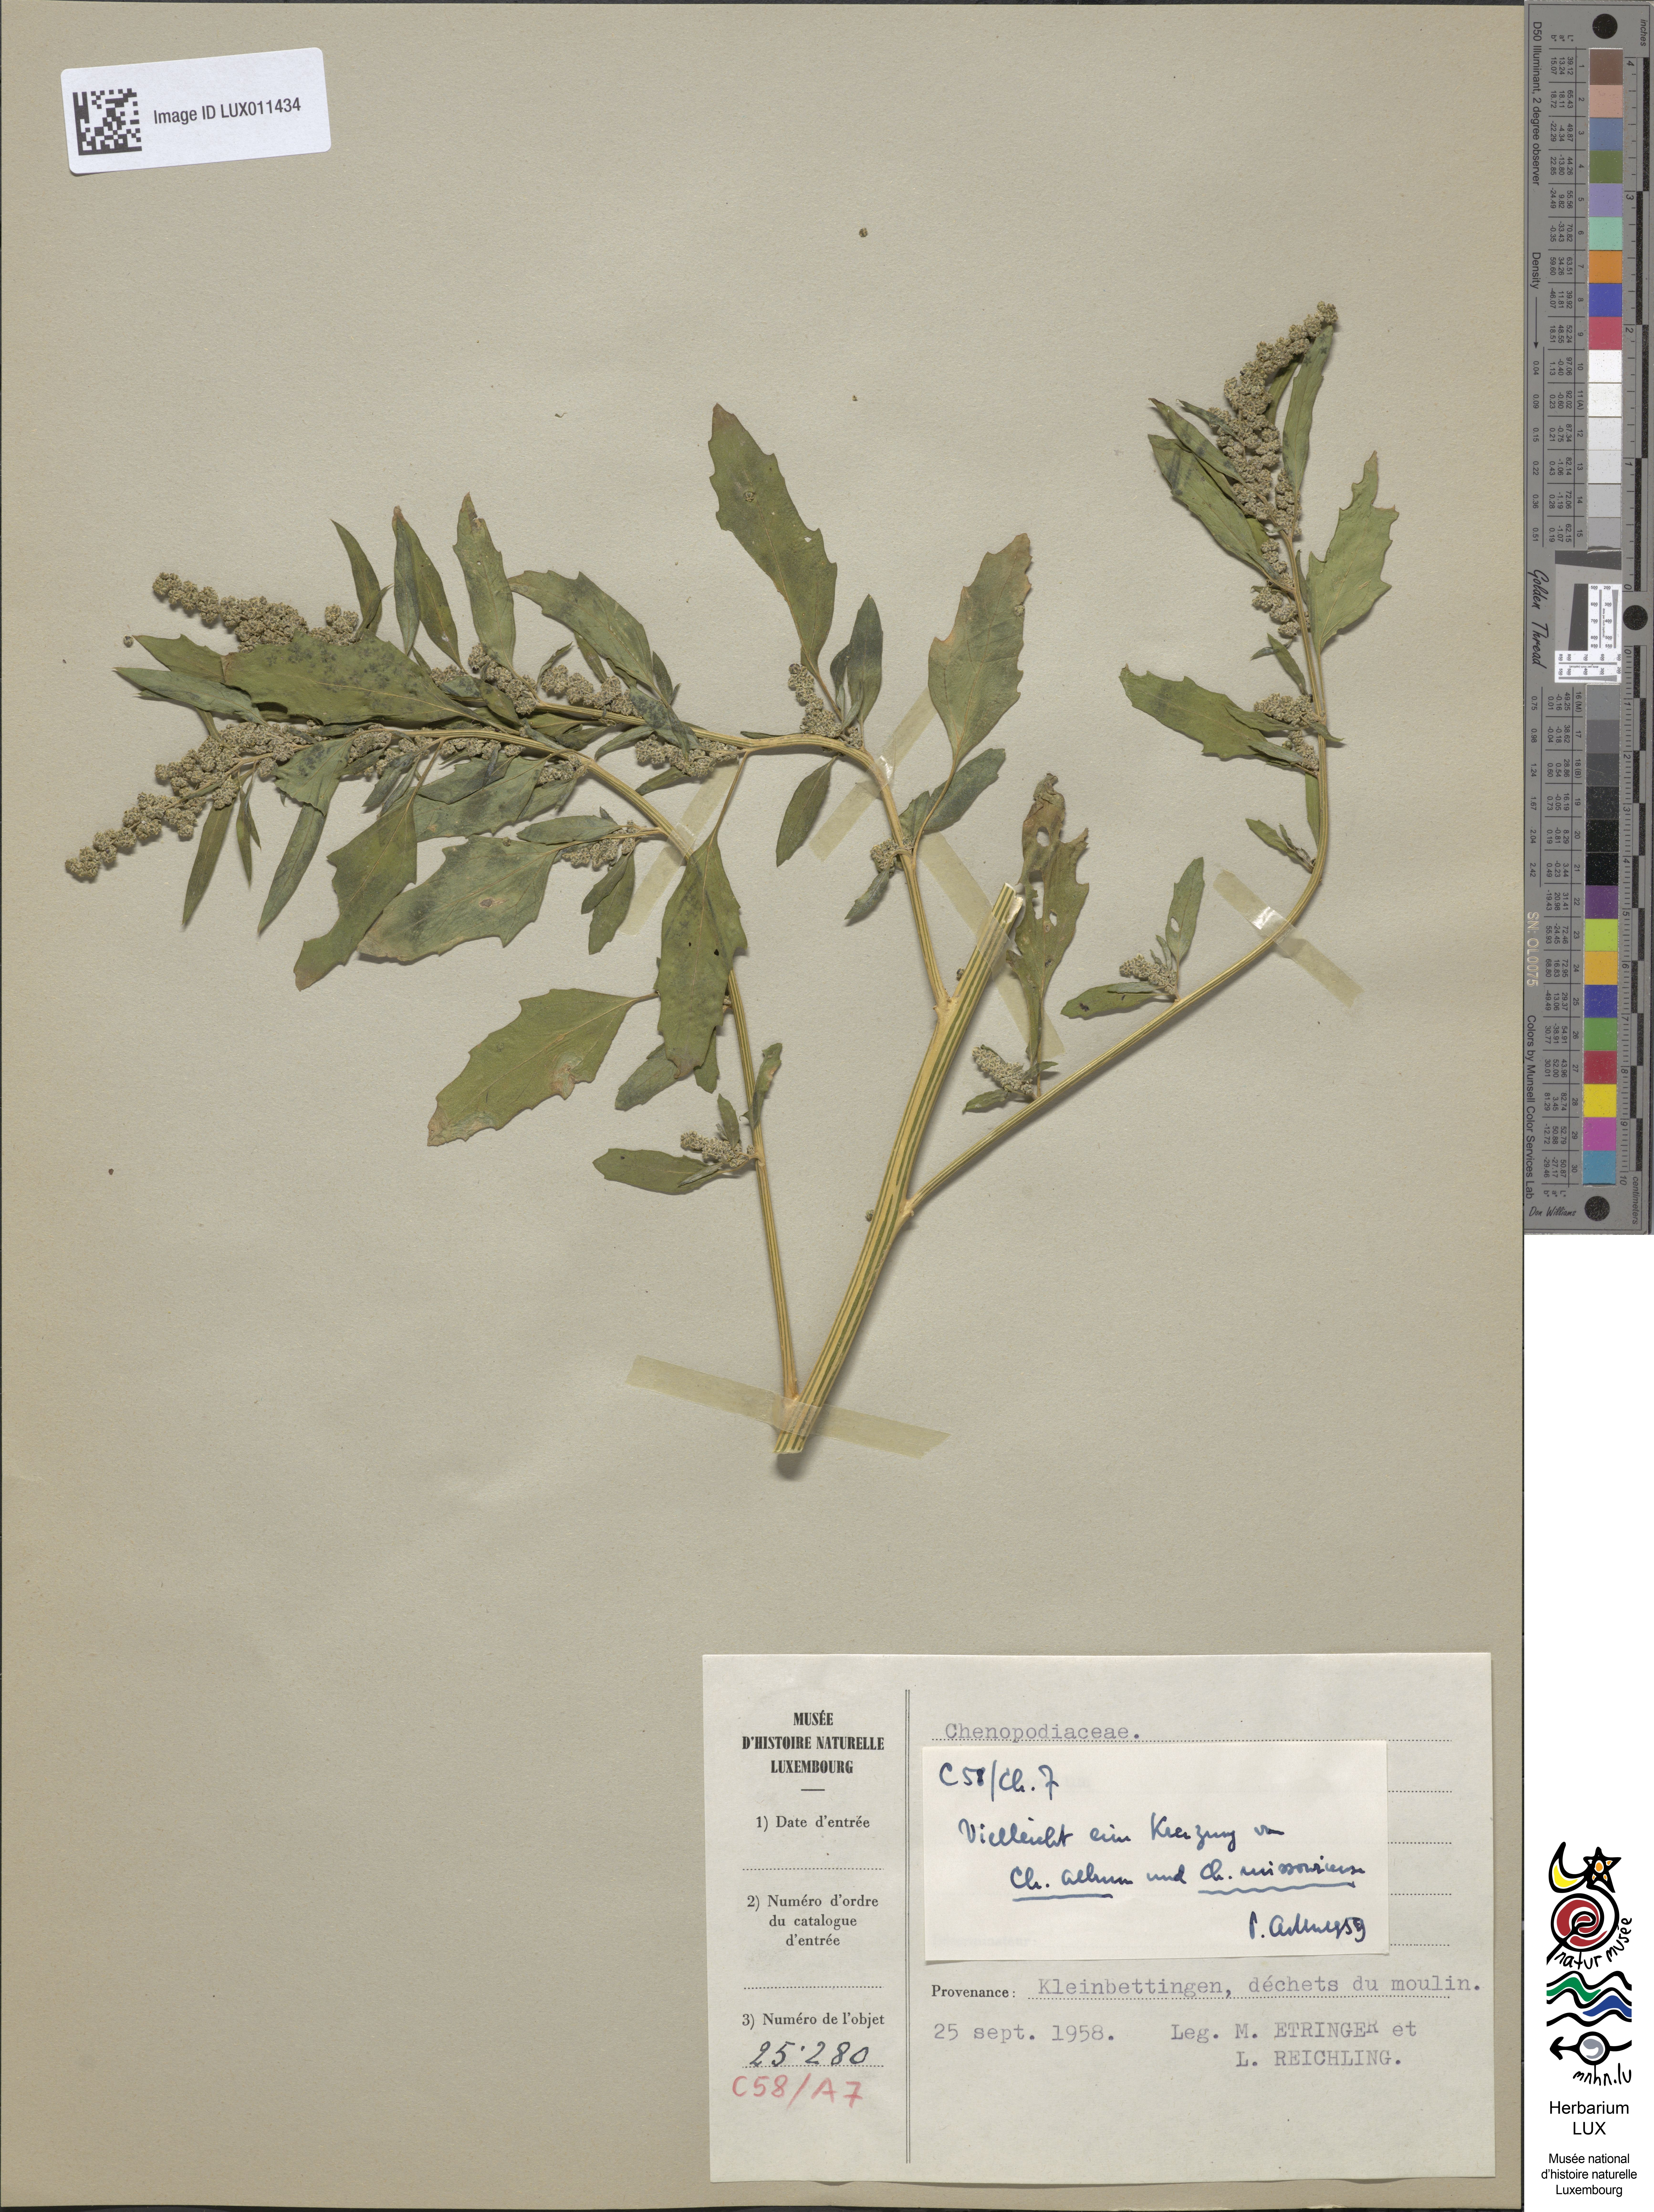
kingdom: Plantae
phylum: Tracheophyta
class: Magnoliopsida
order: Caryophyllales
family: Amaranthaceae
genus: Chenopodium
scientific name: Chenopodium album
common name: Fat-hen
